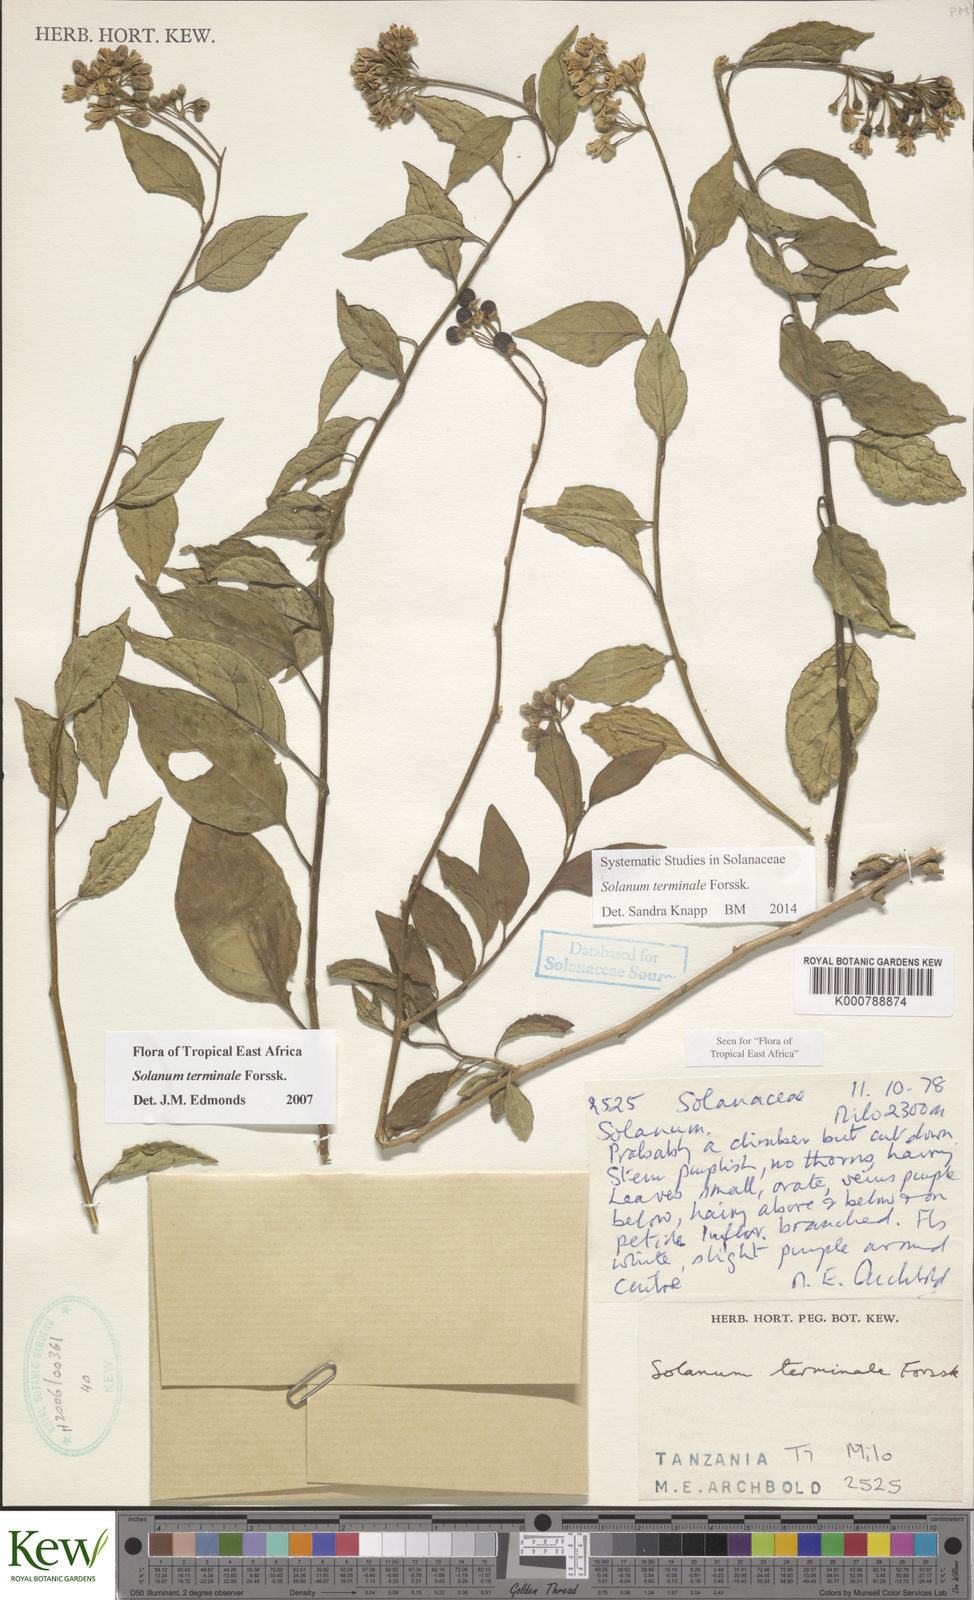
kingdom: Plantae
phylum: Tracheophyta
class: Magnoliopsida
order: Solanales
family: Solanaceae
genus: Solanum
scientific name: Solanum terminale
